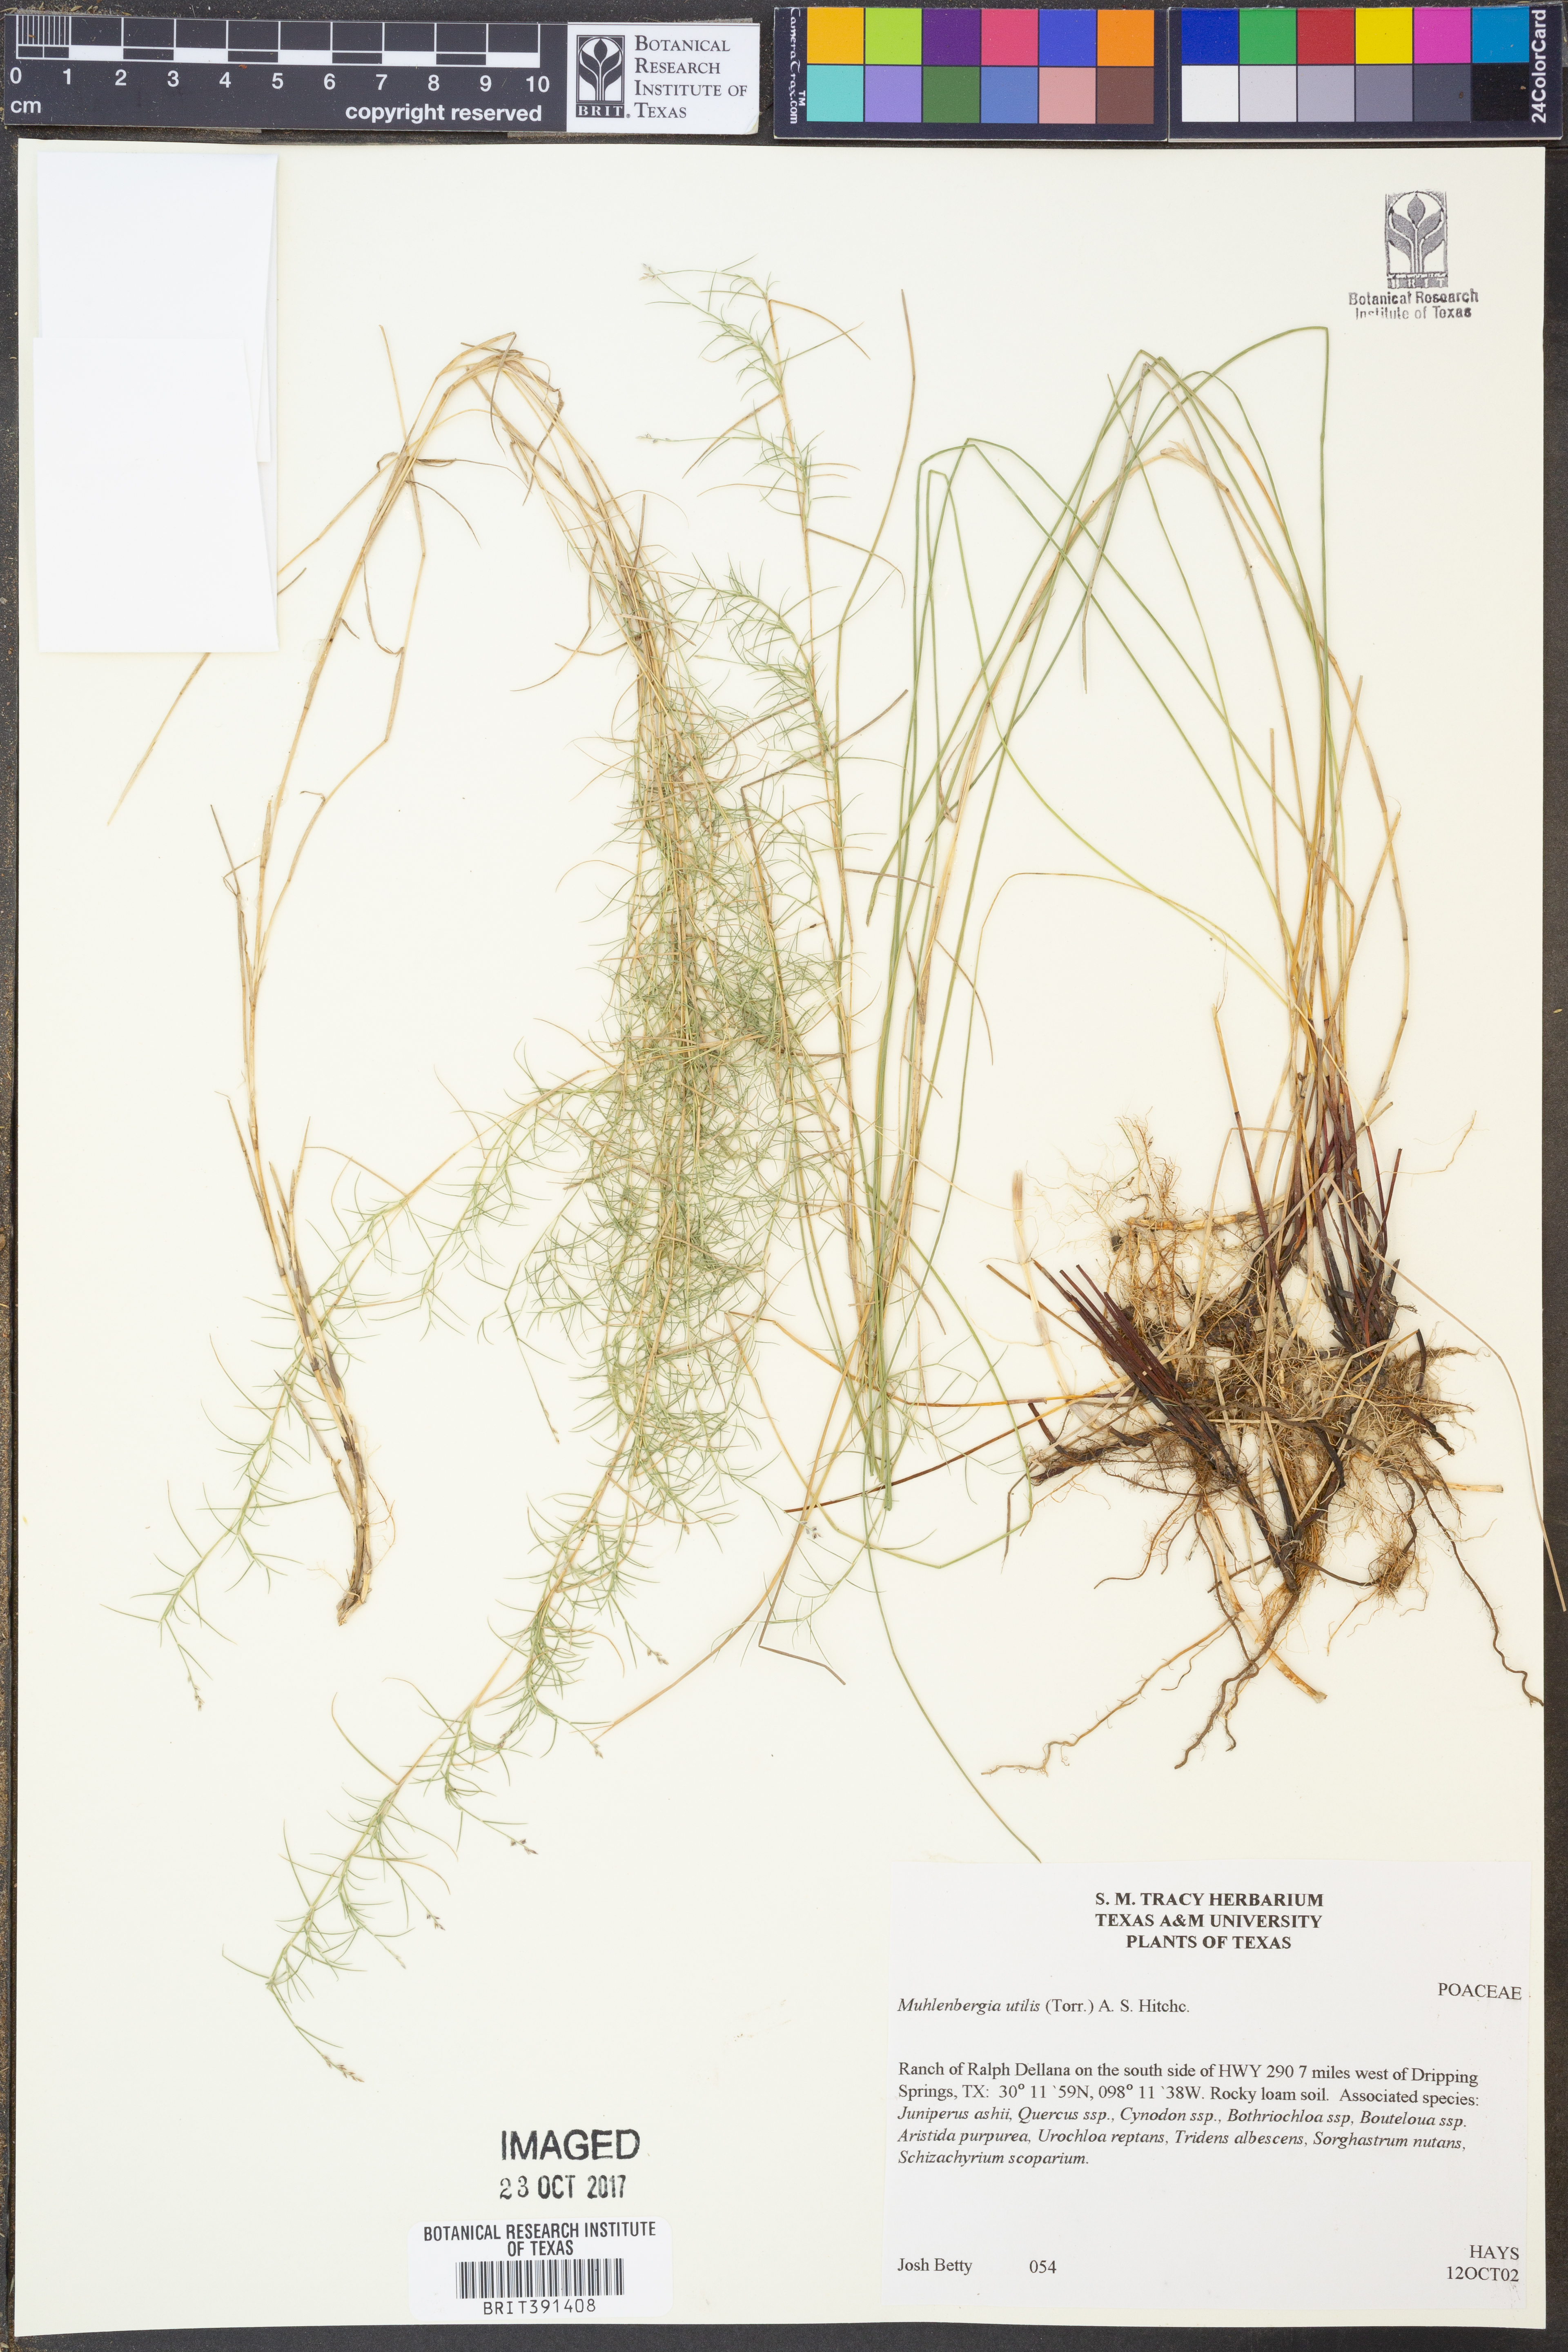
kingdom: Plantae
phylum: Tracheophyta
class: Liliopsida
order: Poales
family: Poaceae
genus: Muhlenbergia
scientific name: Muhlenbergia utilis
